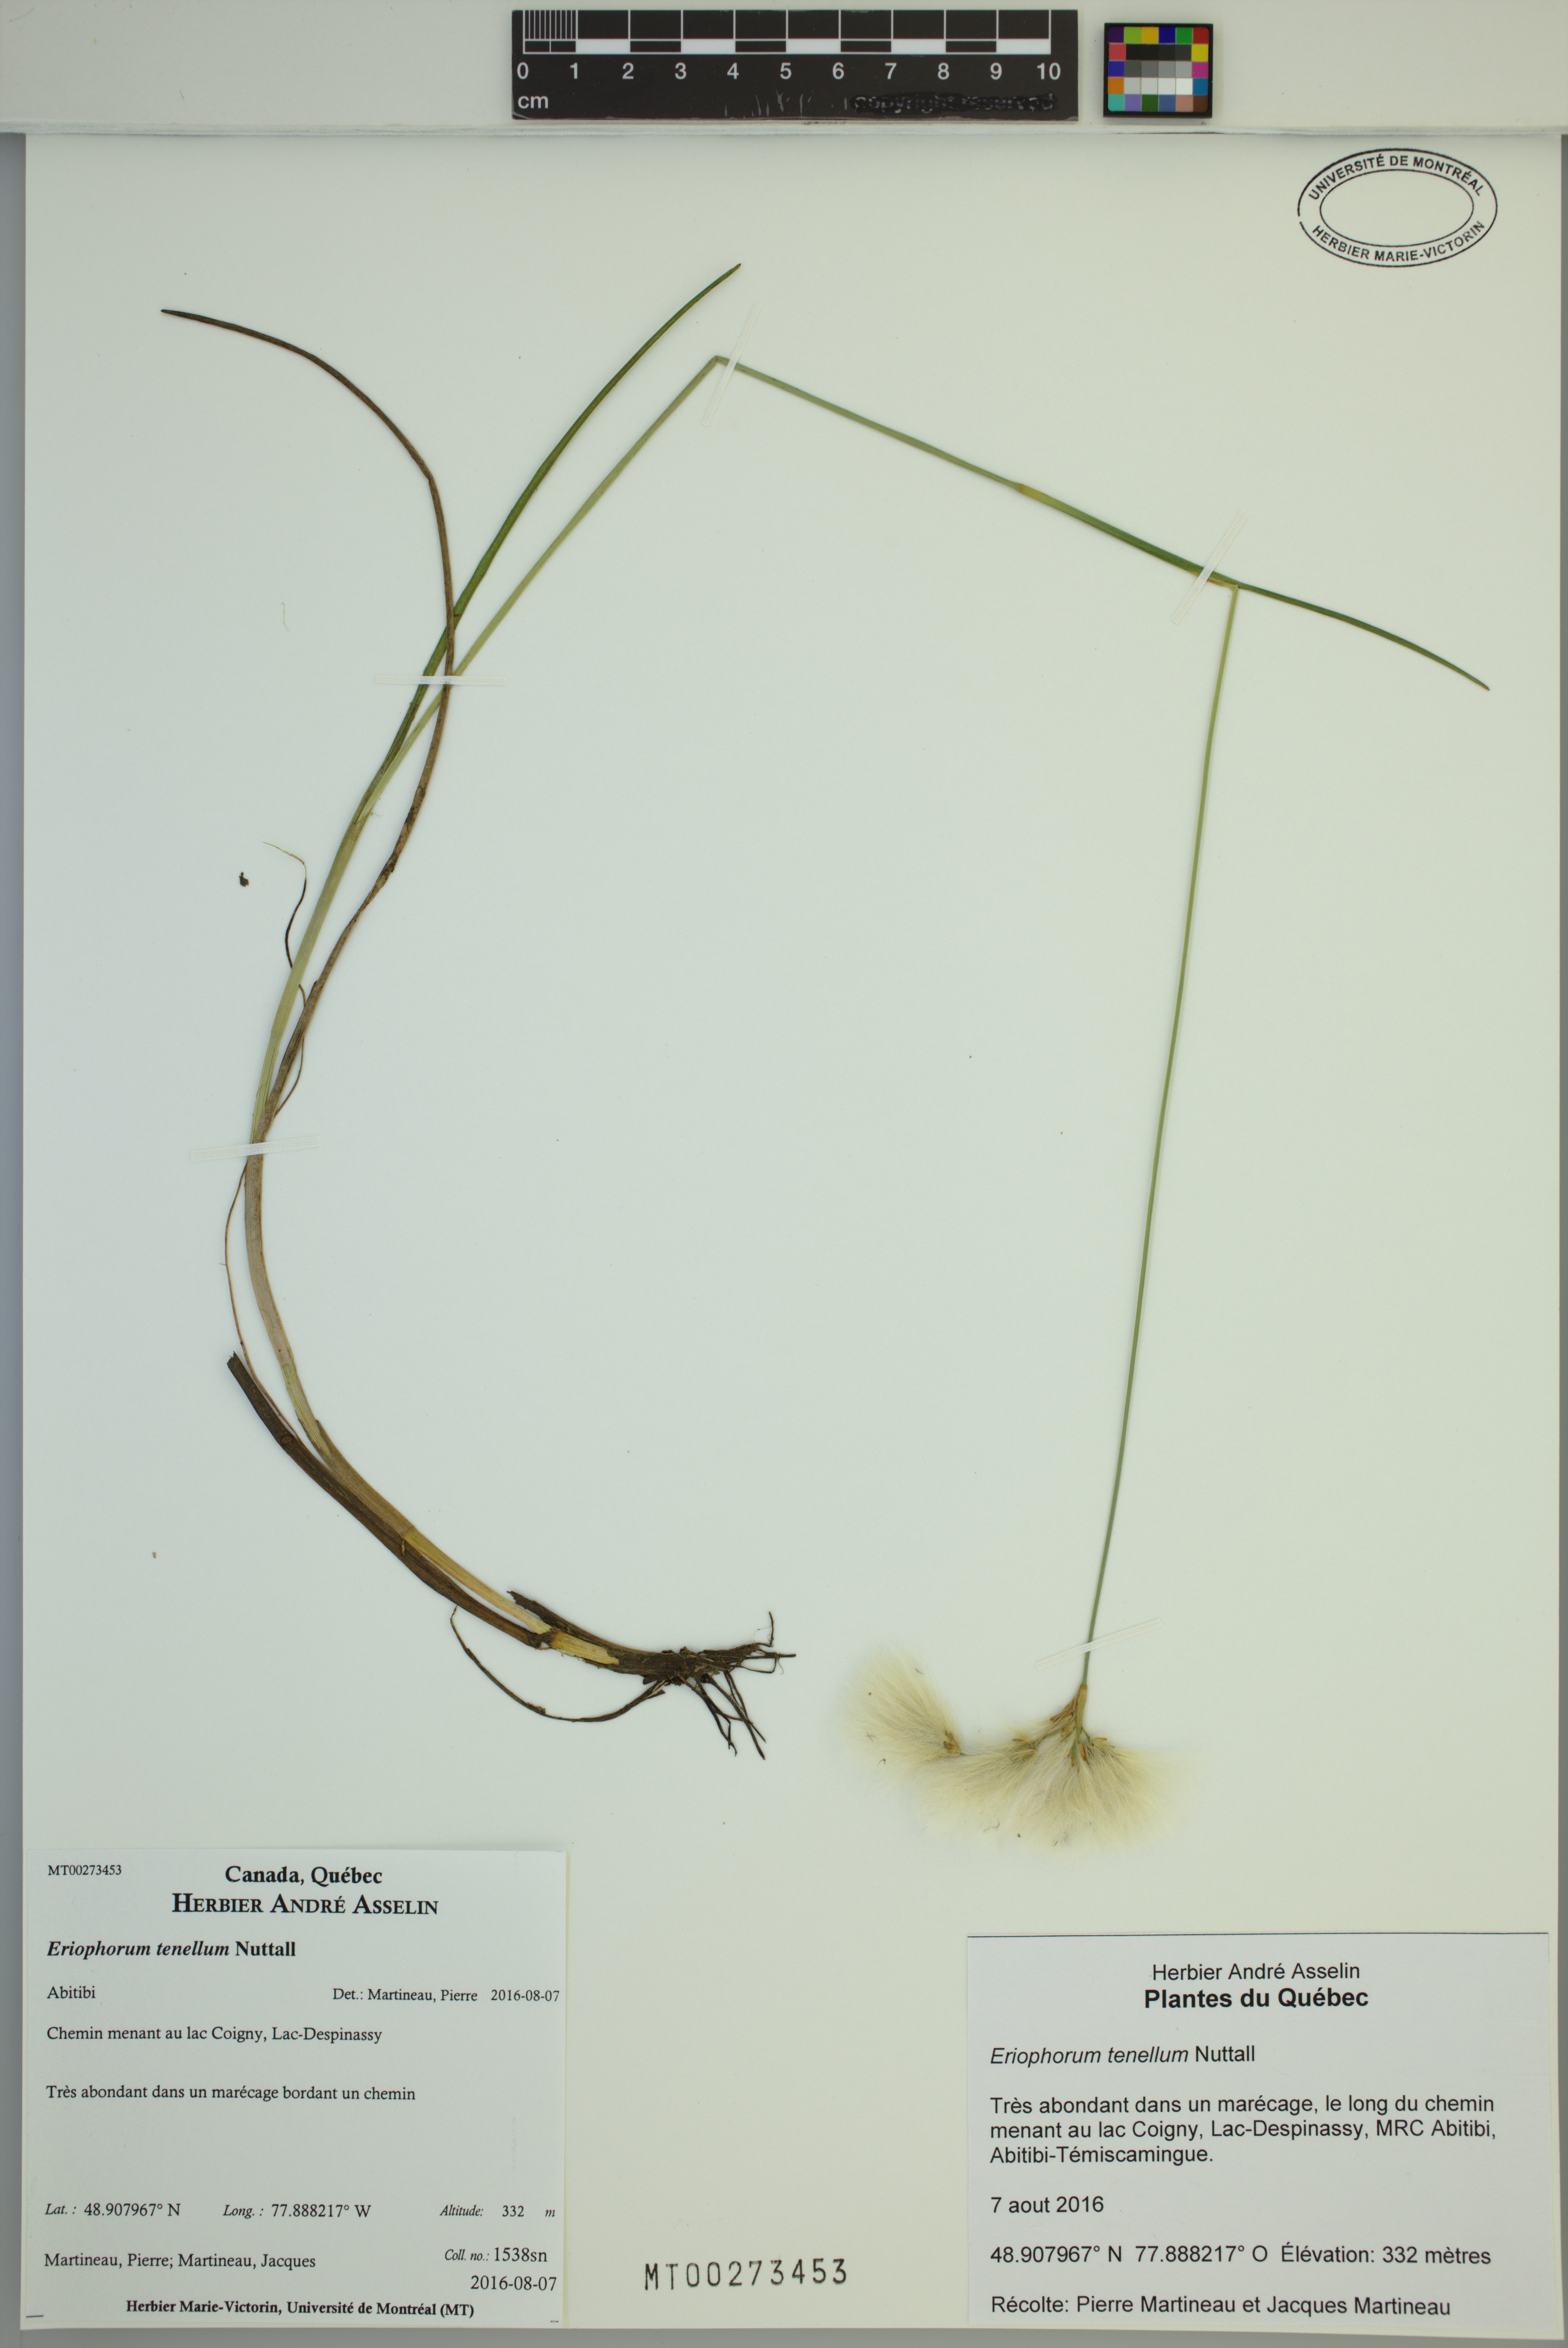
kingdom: Plantae
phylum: Tracheophyta
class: Liliopsida
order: Poales
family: Cyperaceae
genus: Eriophorum
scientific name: Eriophorum tenellum
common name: Few-nerved cottongrass
